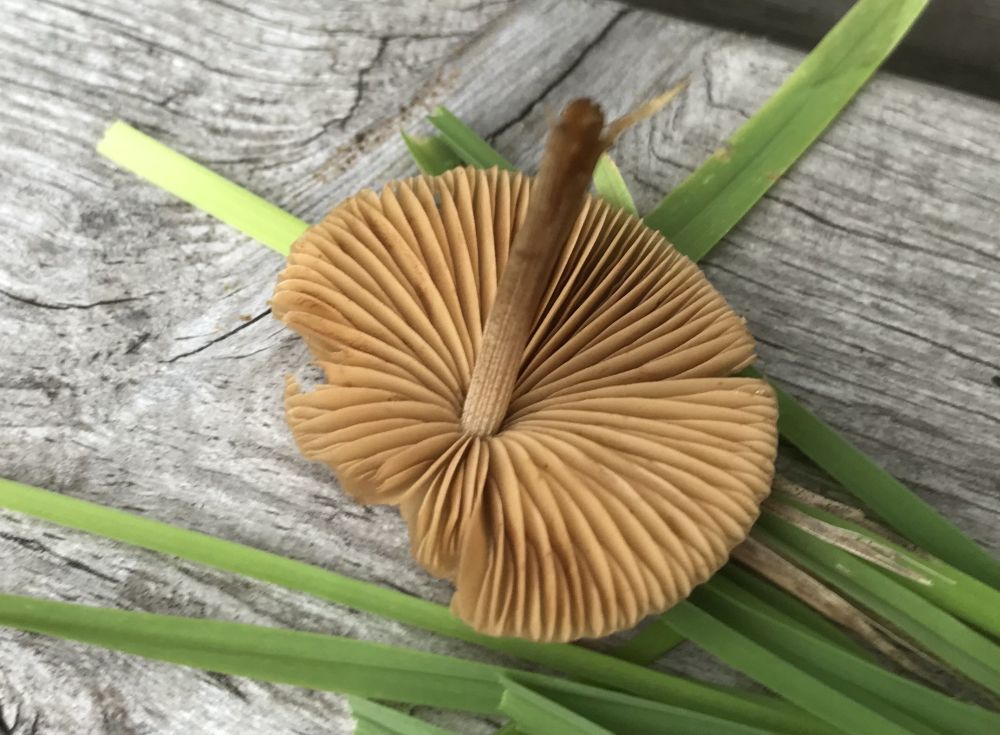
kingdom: Fungi
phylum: Basidiomycota
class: Agaricomycetes
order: Agaricales
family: Bolbitiaceae
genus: Conocybe
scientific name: Conocybe
